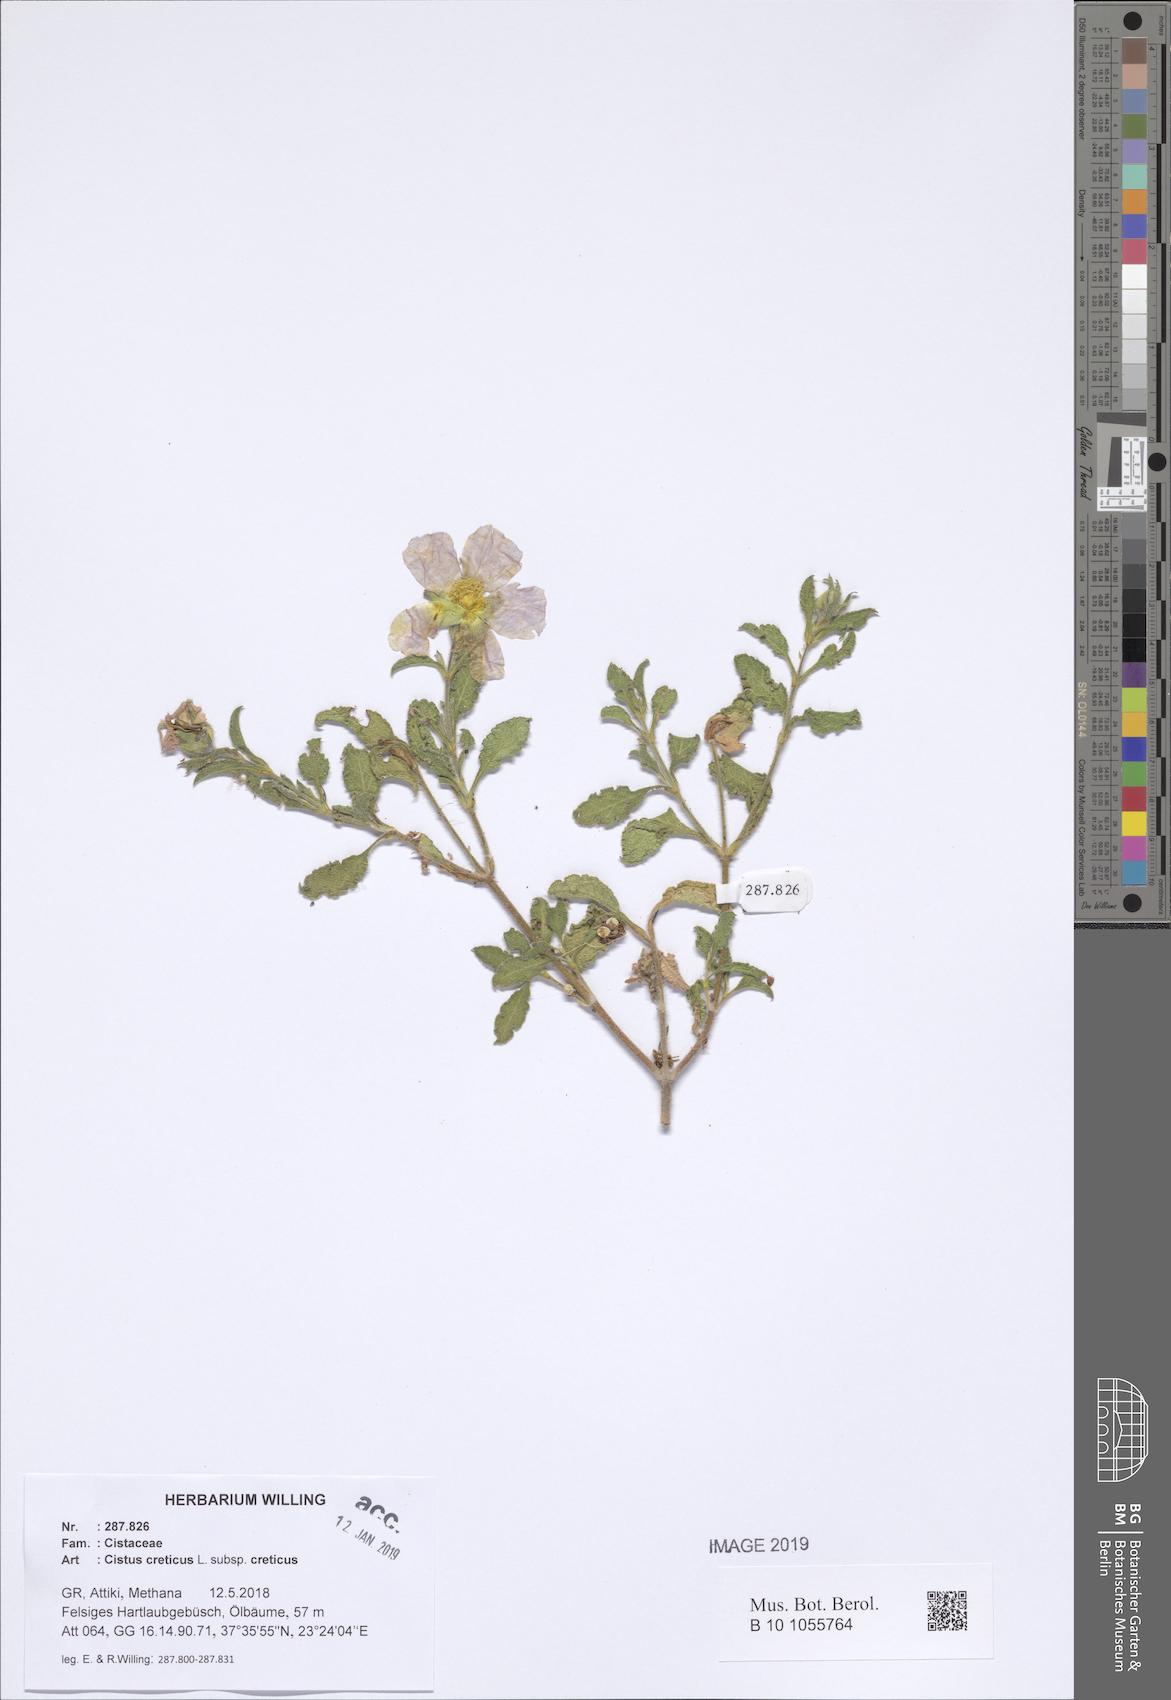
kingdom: Plantae
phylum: Tracheophyta
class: Magnoliopsida
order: Malvales
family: Cistaceae
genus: Cistus
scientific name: Cistus creticus
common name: Cretan rockrose
